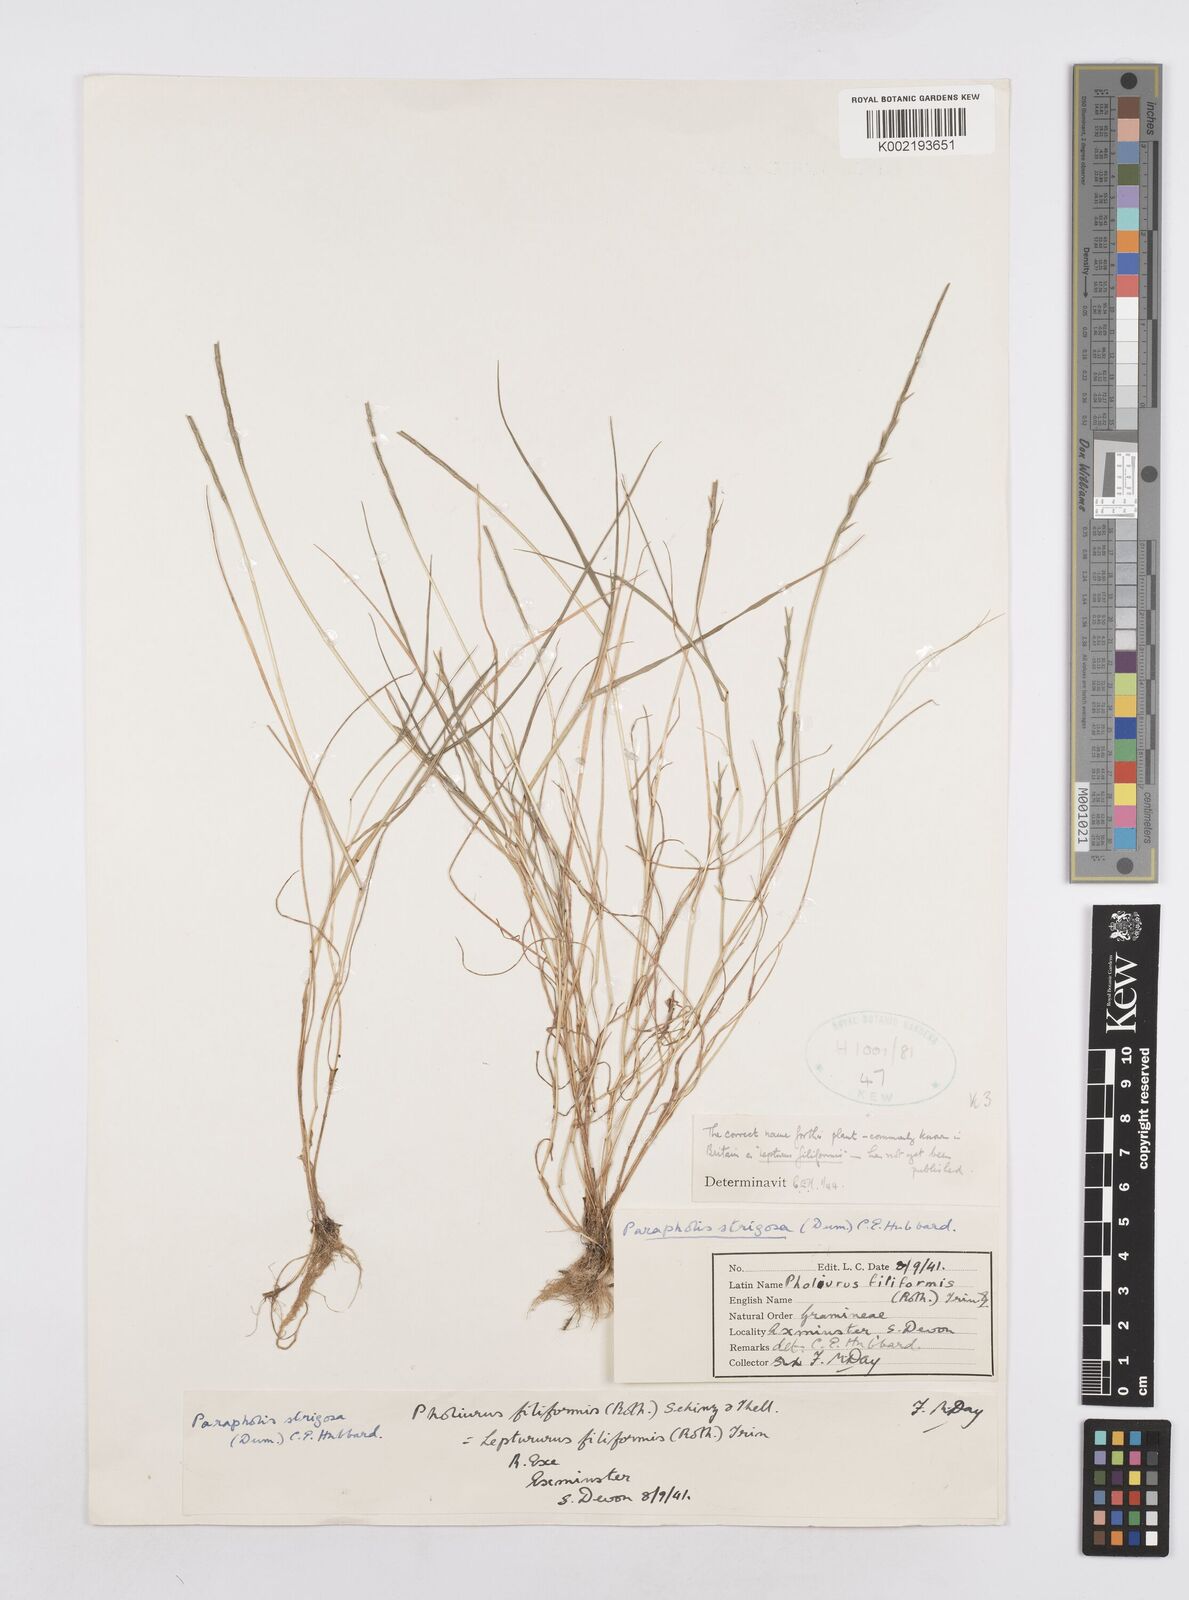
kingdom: Plantae
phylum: Tracheophyta
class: Liliopsida
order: Poales
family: Poaceae
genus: Parapholis
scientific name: Parapholis strigosa
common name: Hard-grass
